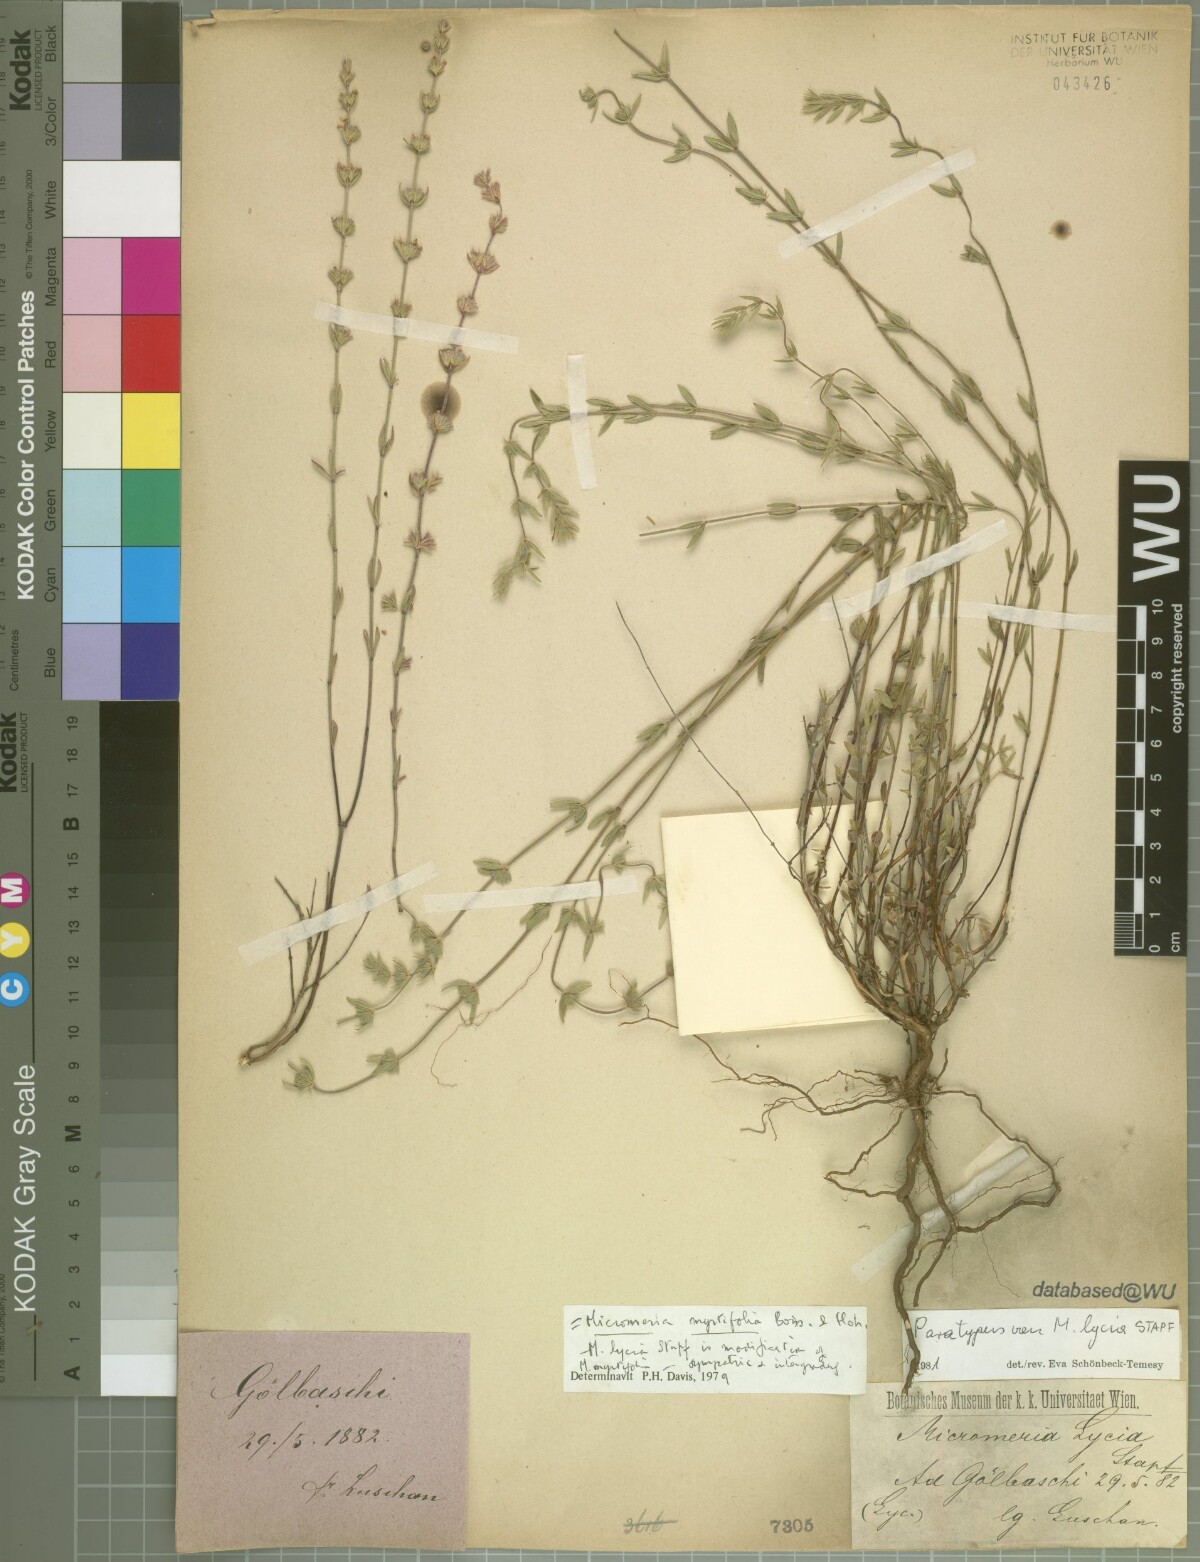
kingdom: Plantae
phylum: Tracheophyta
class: Magnoliopsida
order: Lamiales
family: Lamiaceae
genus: Micromeria
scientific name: Micromeria myrtifolia
